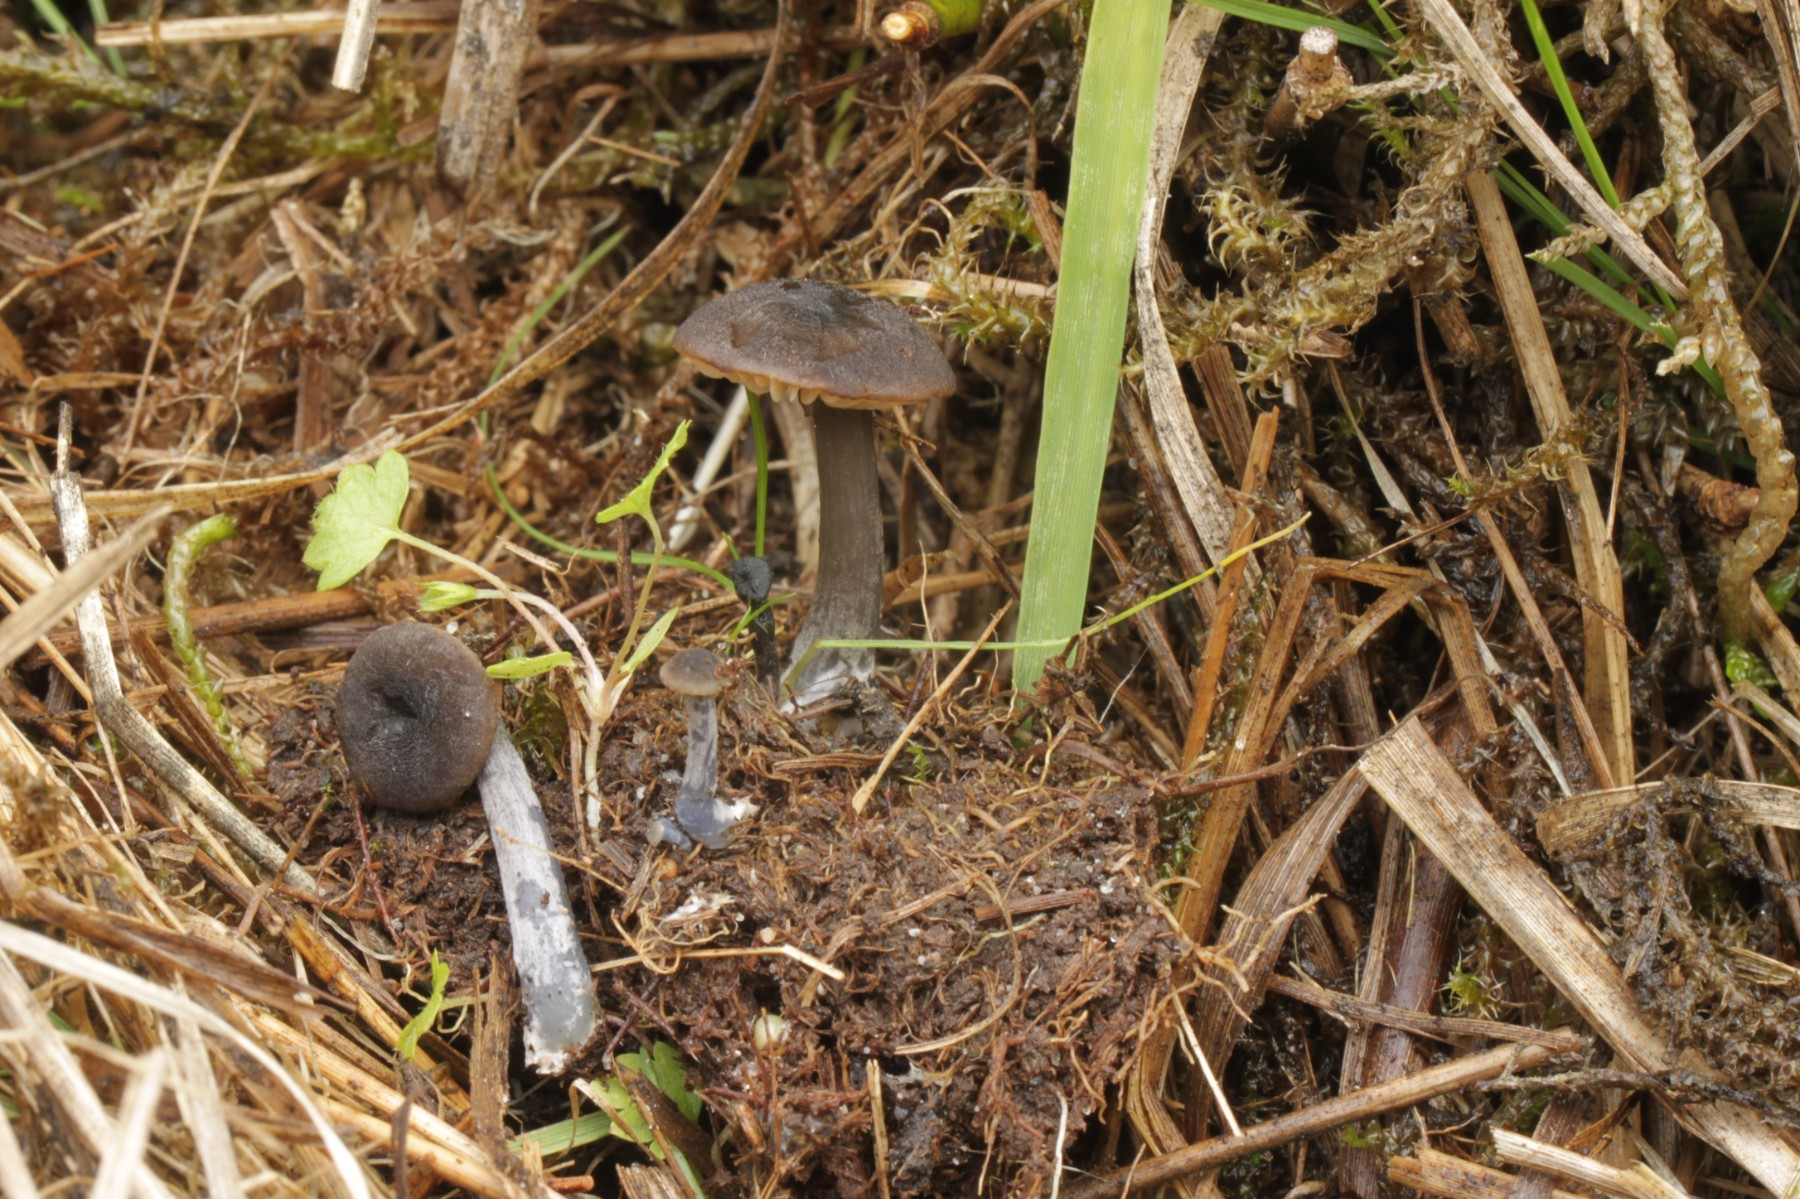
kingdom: Fungi
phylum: Basidiomycota
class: Agaricomycetes
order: Agaricales
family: Entolomataceae
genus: Entoloma
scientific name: Entoloma
